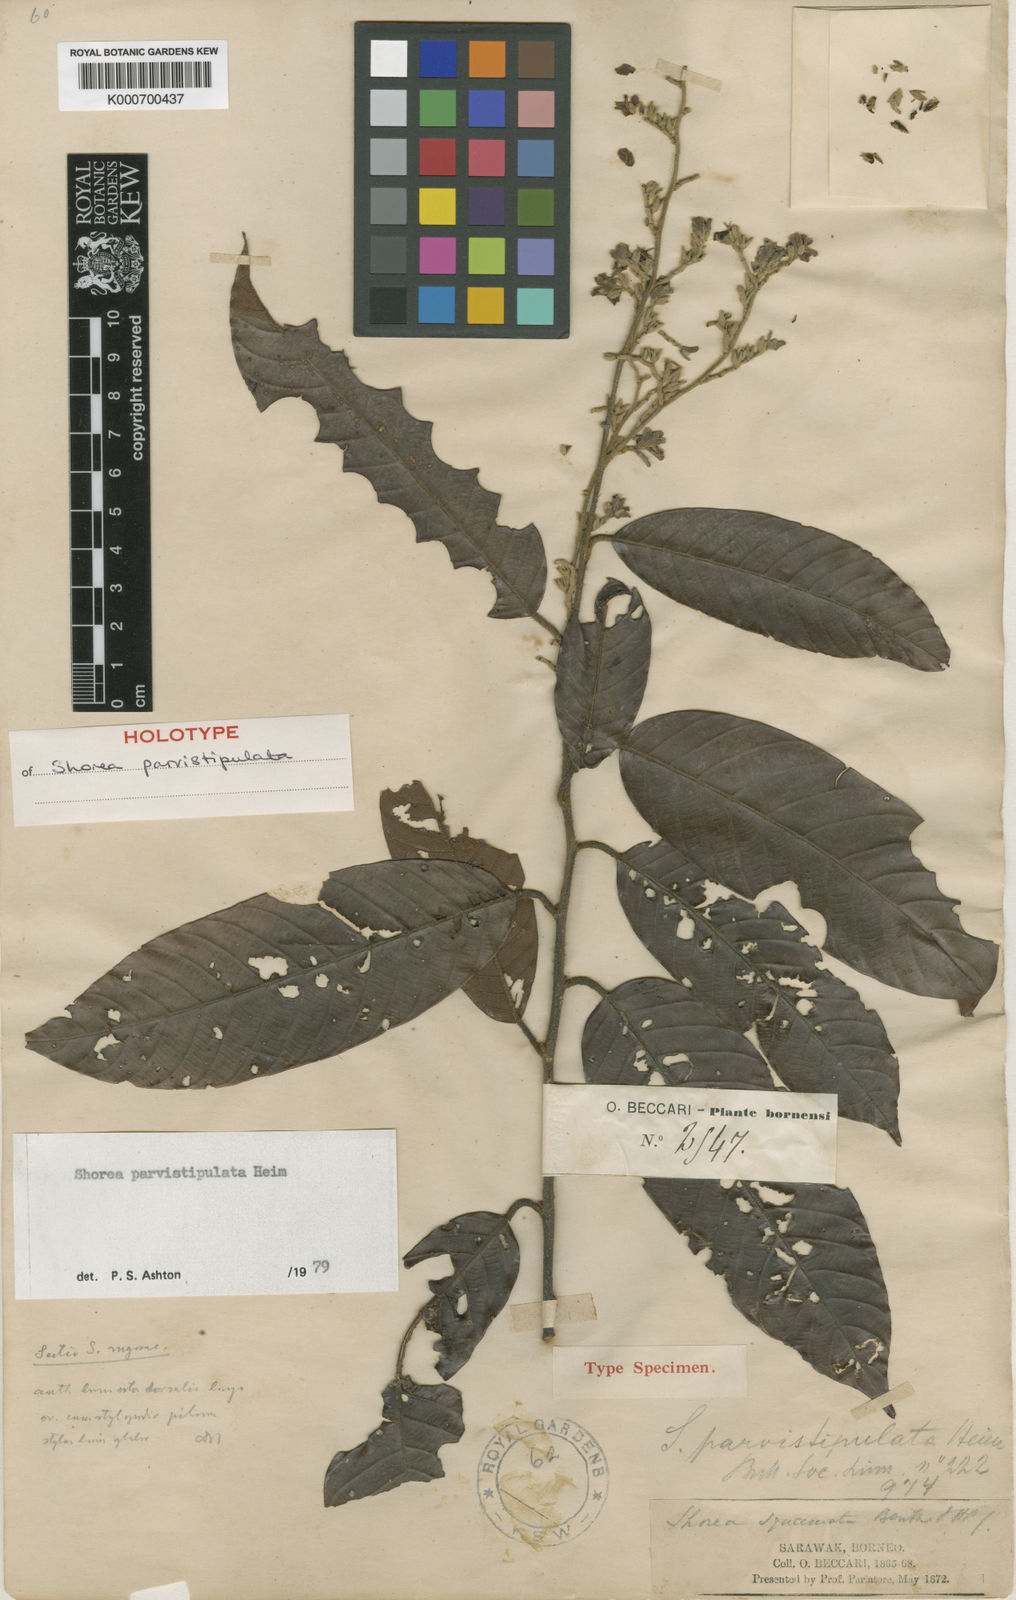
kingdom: Plantae
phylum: Tracheophyta
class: Magnoliopsida
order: Malvales
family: Dipterocarpaceae
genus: Shorea
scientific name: Shorea parvistipulata
